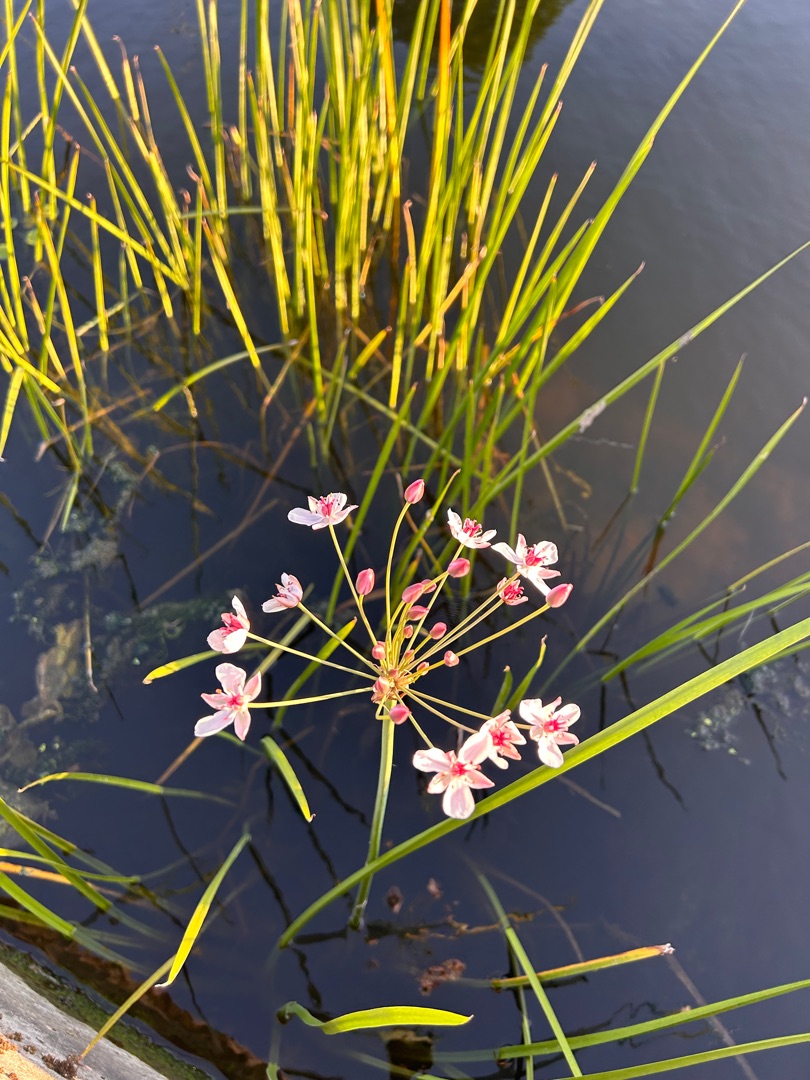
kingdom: Plantae
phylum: Tracheophyta
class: Liliopsida
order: Alismatales
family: Butomaceae
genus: Butomus
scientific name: Butomus umbellatus
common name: Brudelys
